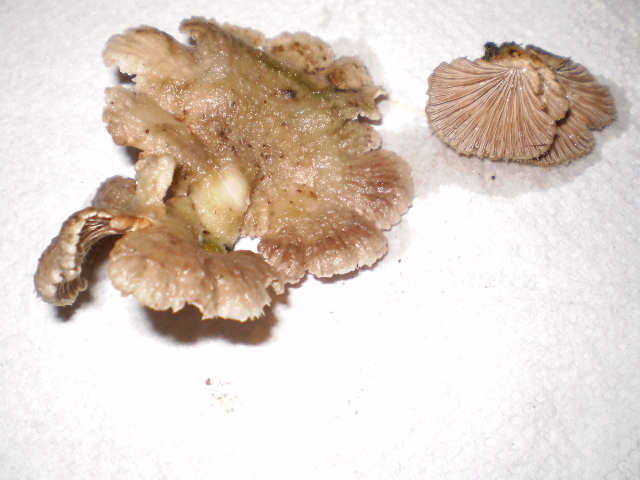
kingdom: Fungi
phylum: Basidiomycota
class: Agaricomycetes
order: Agaricales
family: Schizophyllaceae
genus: Schizophyllum
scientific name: Schizophyllum commune
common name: kløvblad
